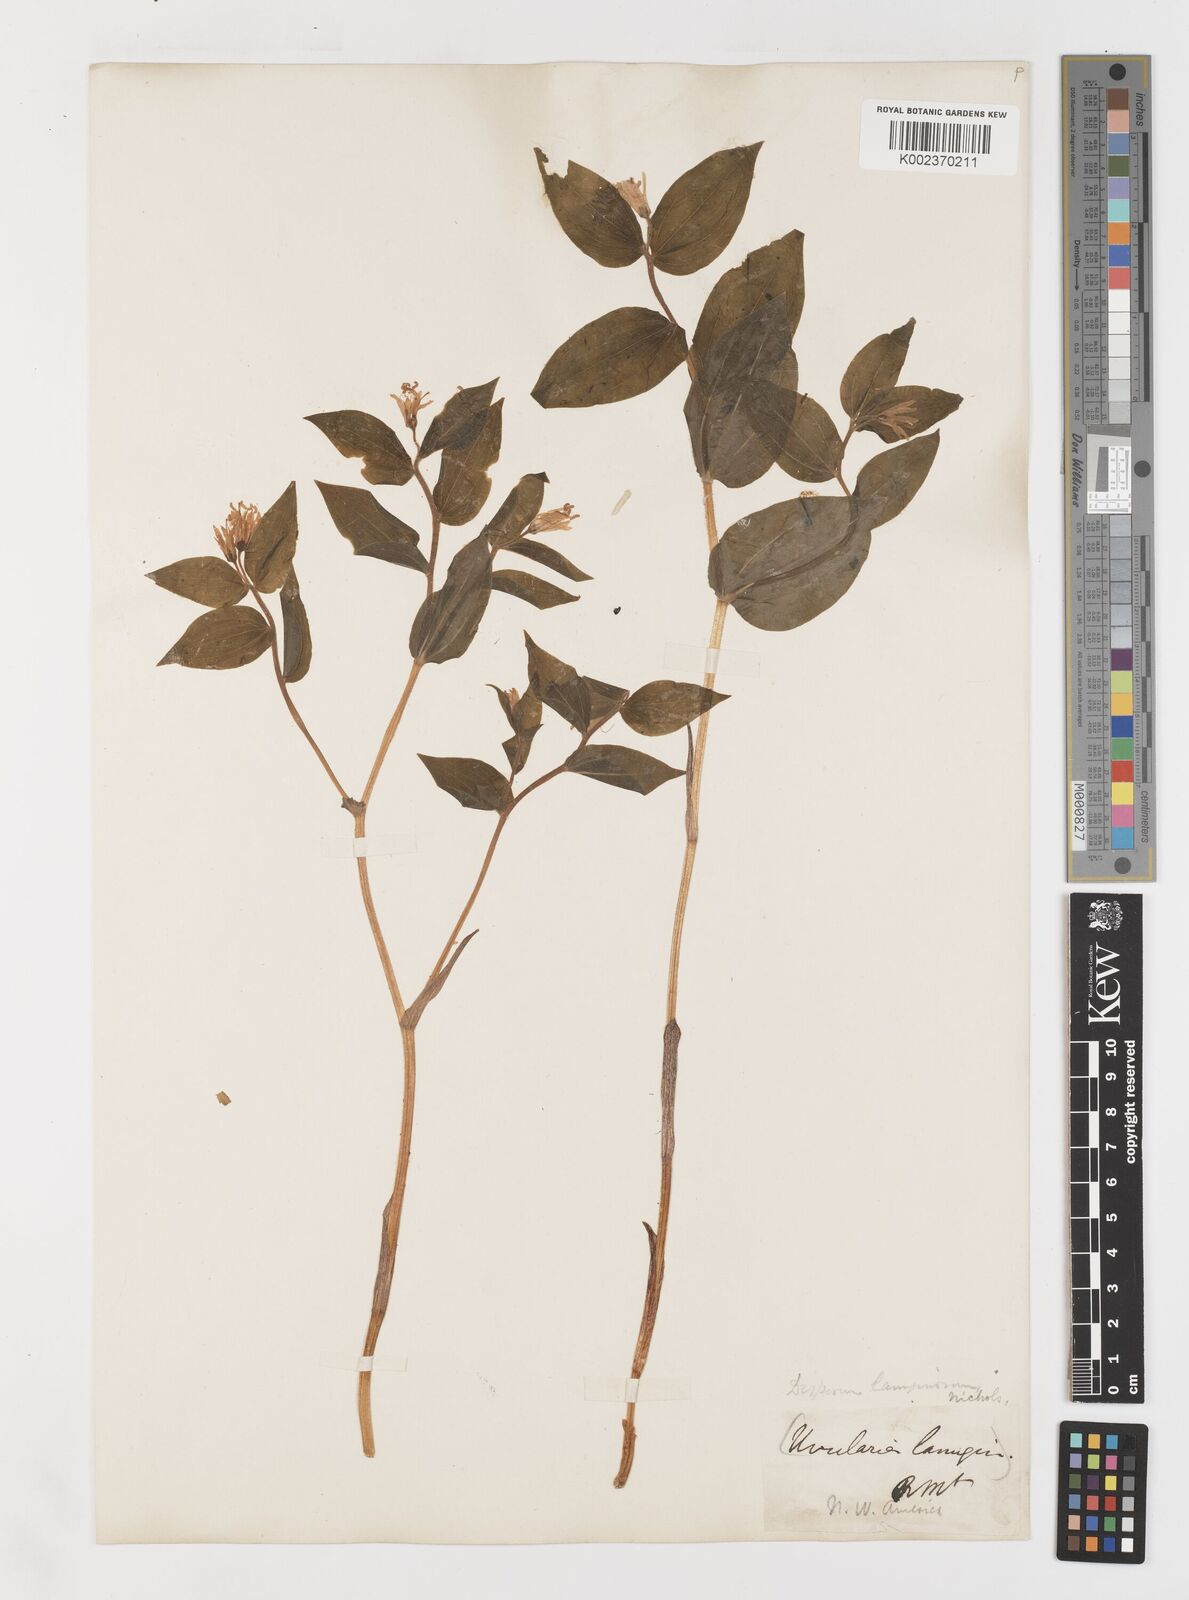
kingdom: Plantae
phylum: Tracheophyta
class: Liliopsida
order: Liliales
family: Liliaceae
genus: Prosartes
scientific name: Prosartes lanuginosa
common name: Hairy mandarin
